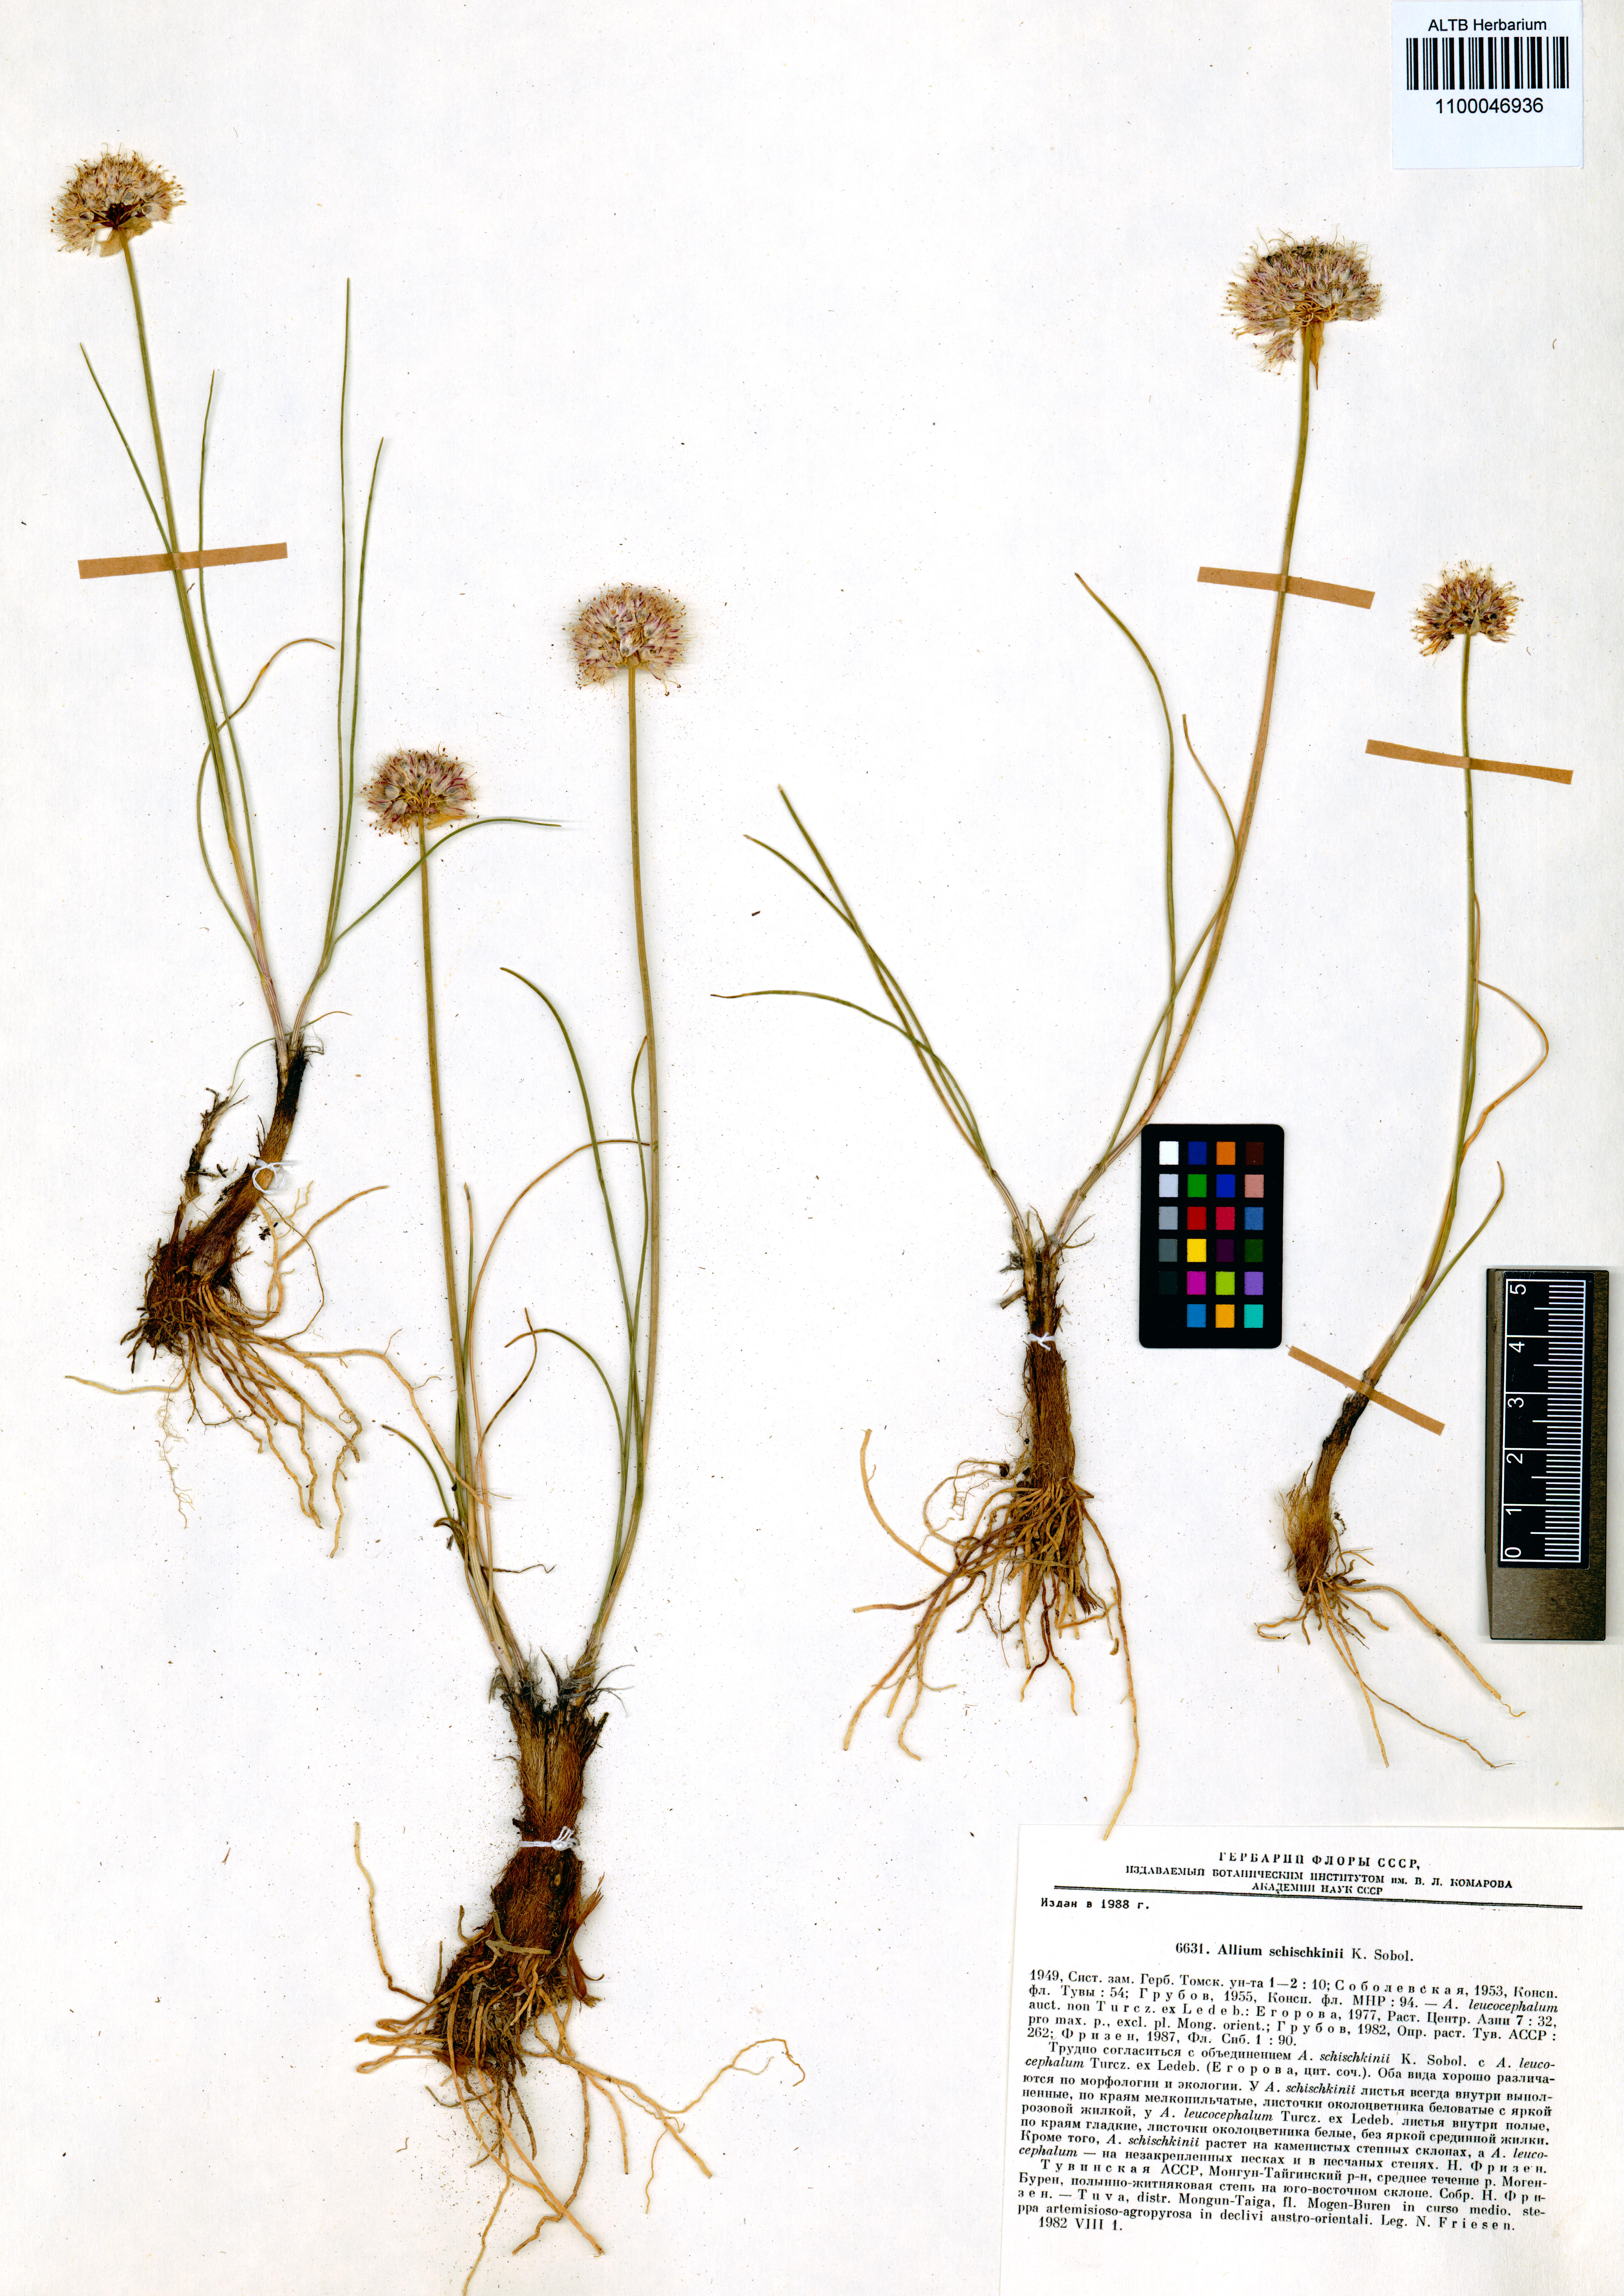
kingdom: Plantae
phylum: Tracheophyta
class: Liliopsida
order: Asparagales
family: Amaryllidaceae
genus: Allium
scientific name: Allium schischkinii
